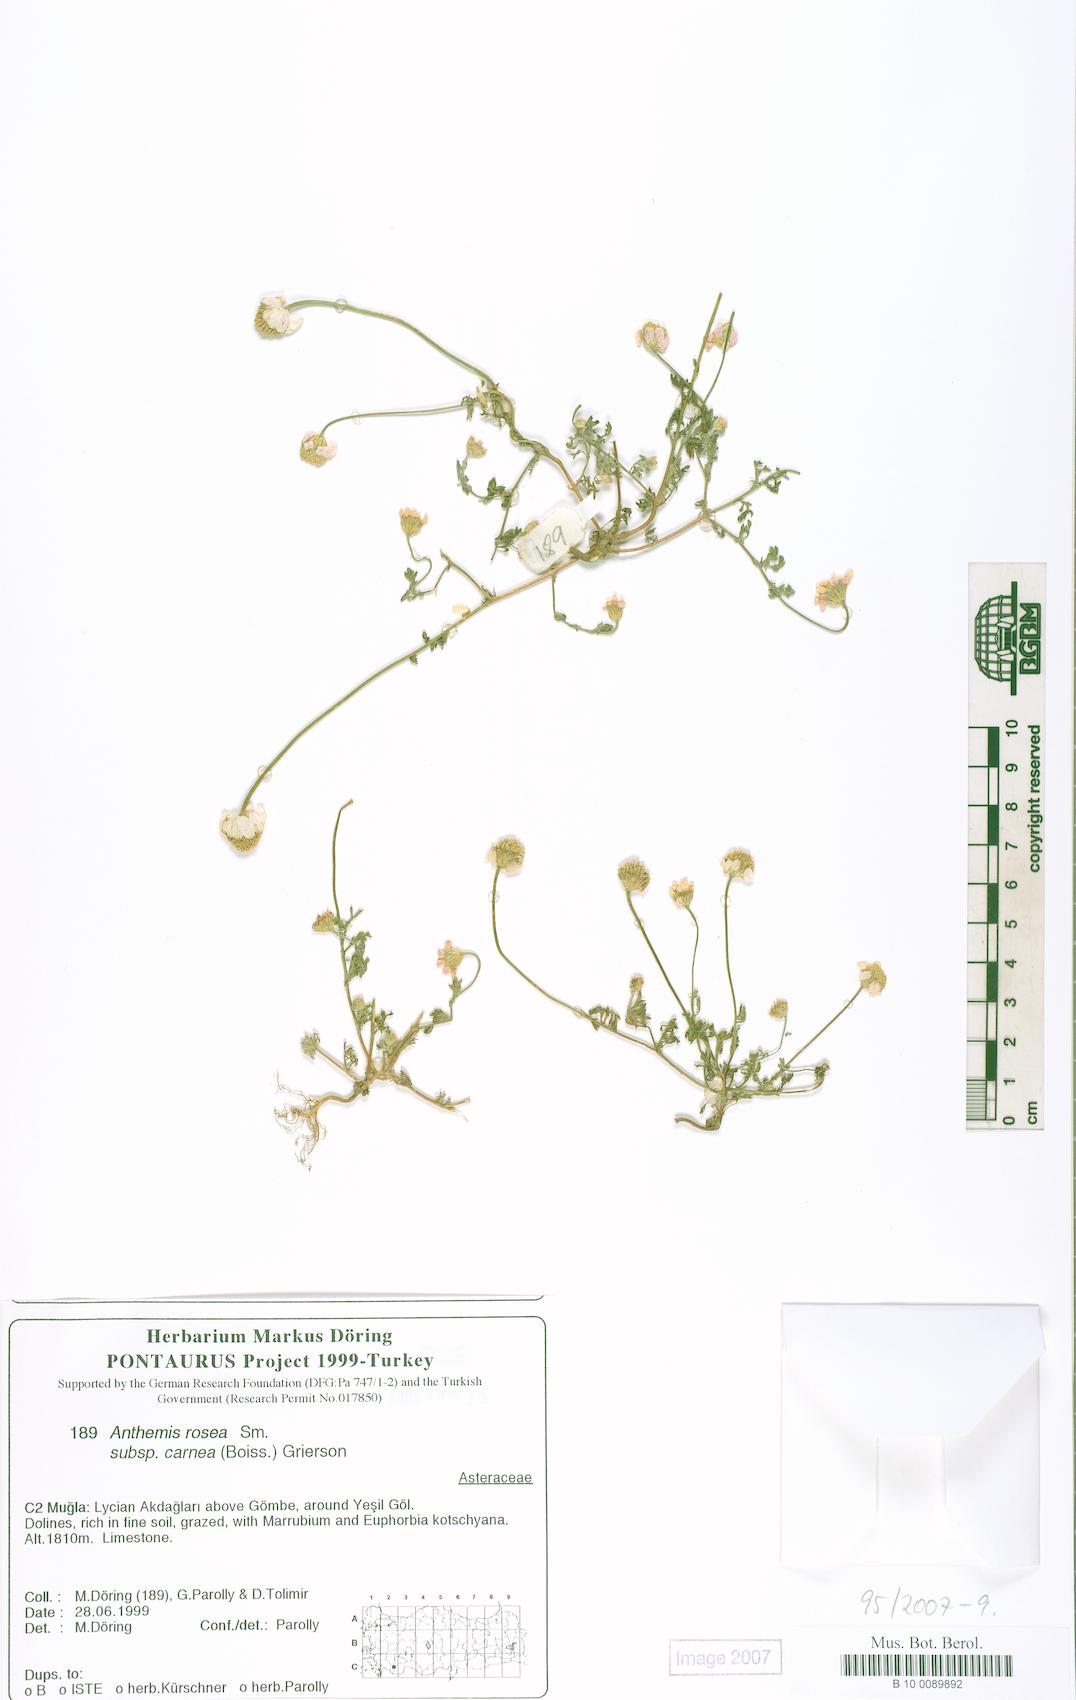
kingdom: Plantae
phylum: Tracheophyta
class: Magnoliopsida
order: Asterales
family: Asteraceae
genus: Anthemis
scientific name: Anthemis rosea
